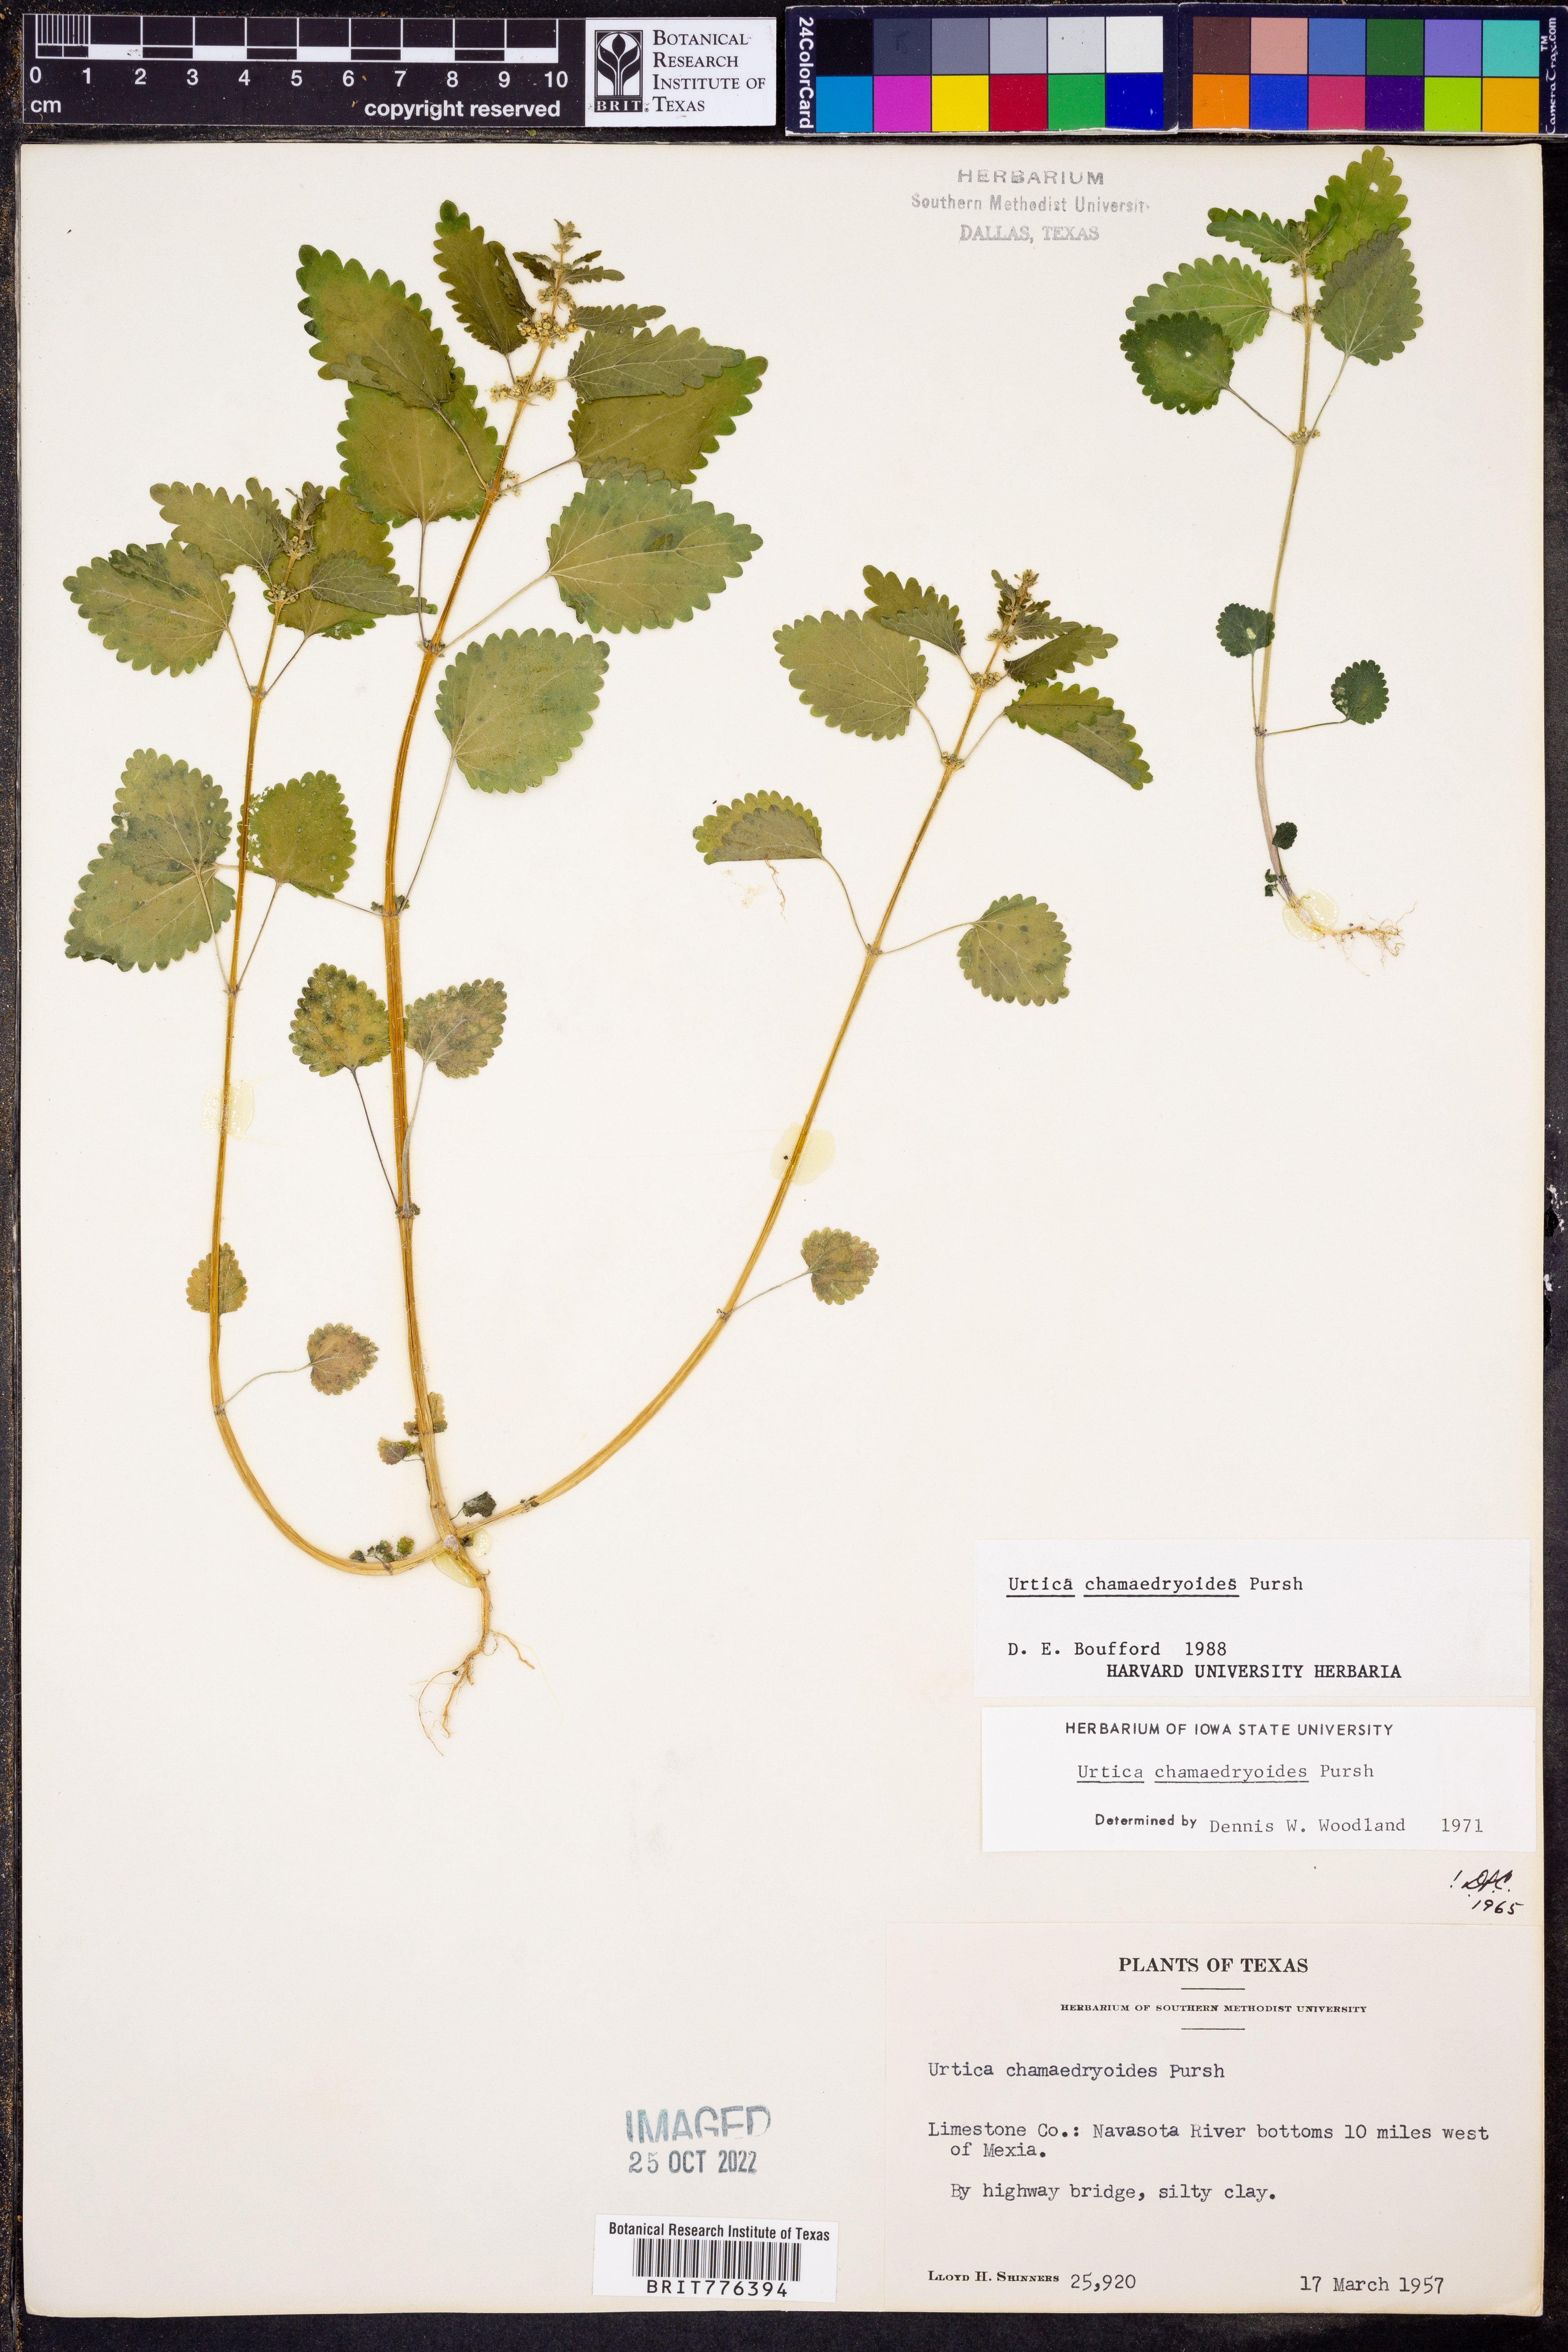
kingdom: Plantae
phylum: Tracheophyta
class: Magnoliopsida
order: Rosales
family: Urticaceae
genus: Urtica
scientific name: Urtica chamaedryoides
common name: Heart-leaf nettle
